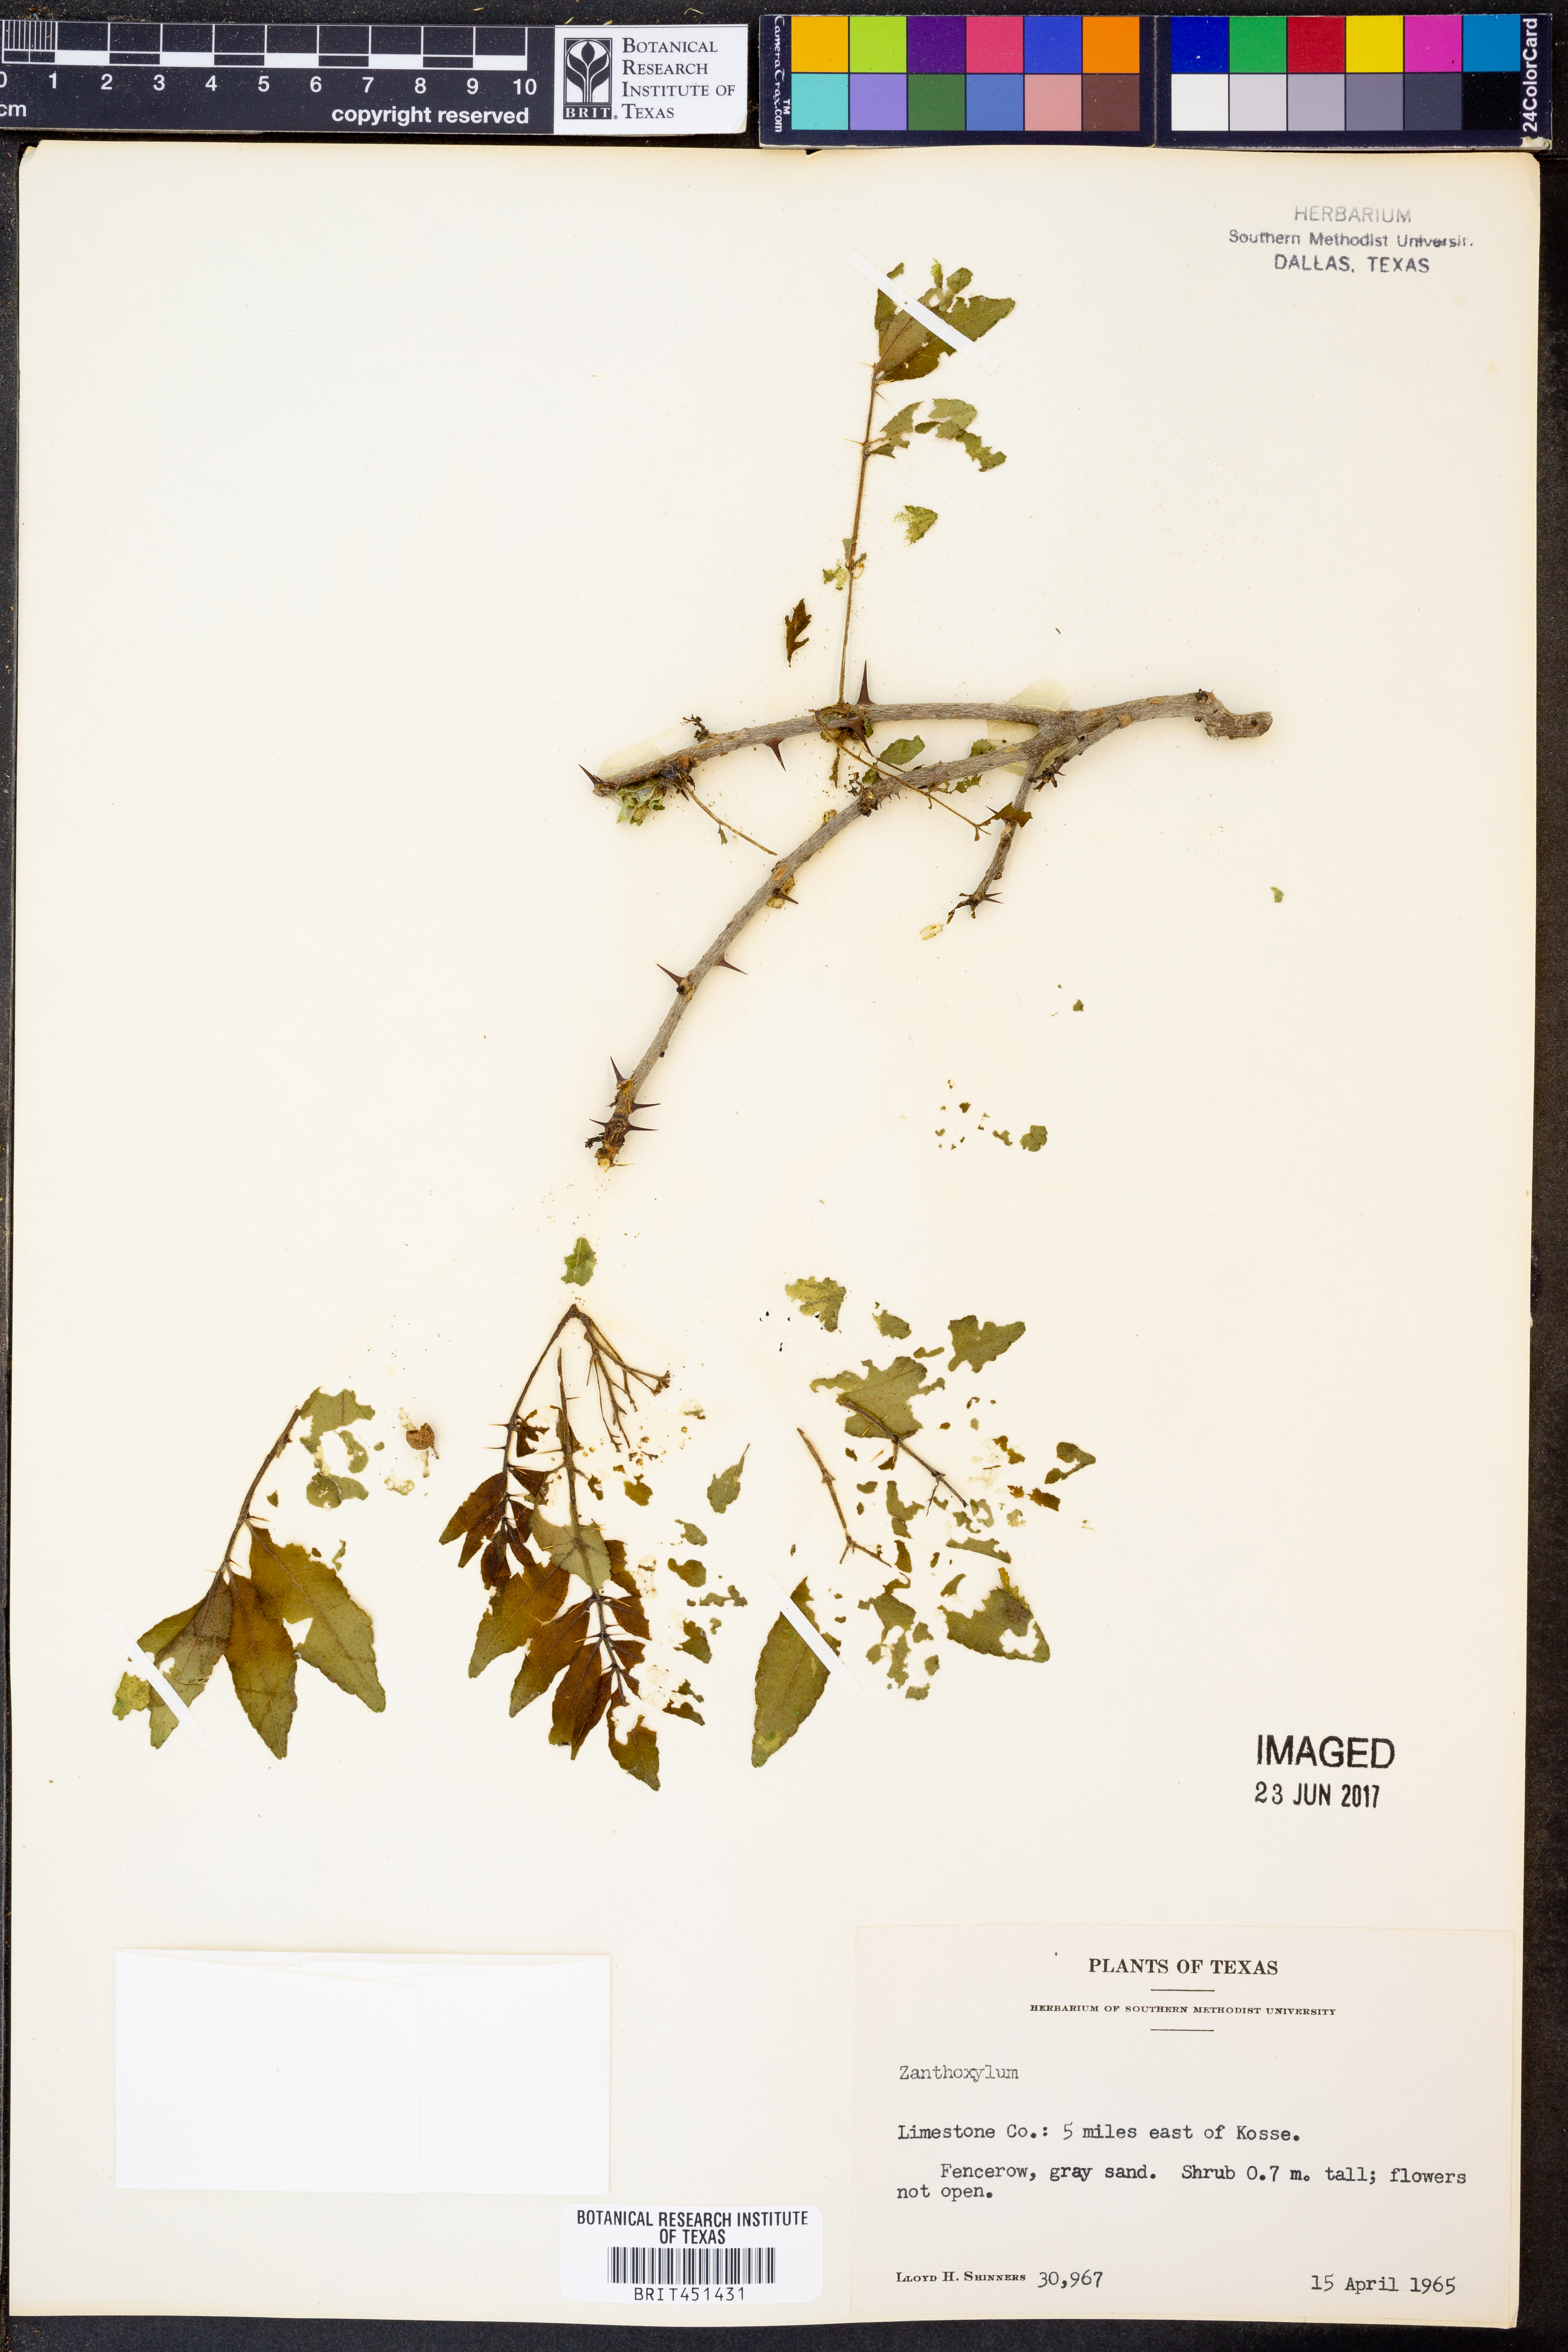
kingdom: Plantae
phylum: Tracheophyta
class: Magnoliopsida
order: Sapindales
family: Rutaceae
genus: Zanthoxylum
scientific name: Zanthoxylum
